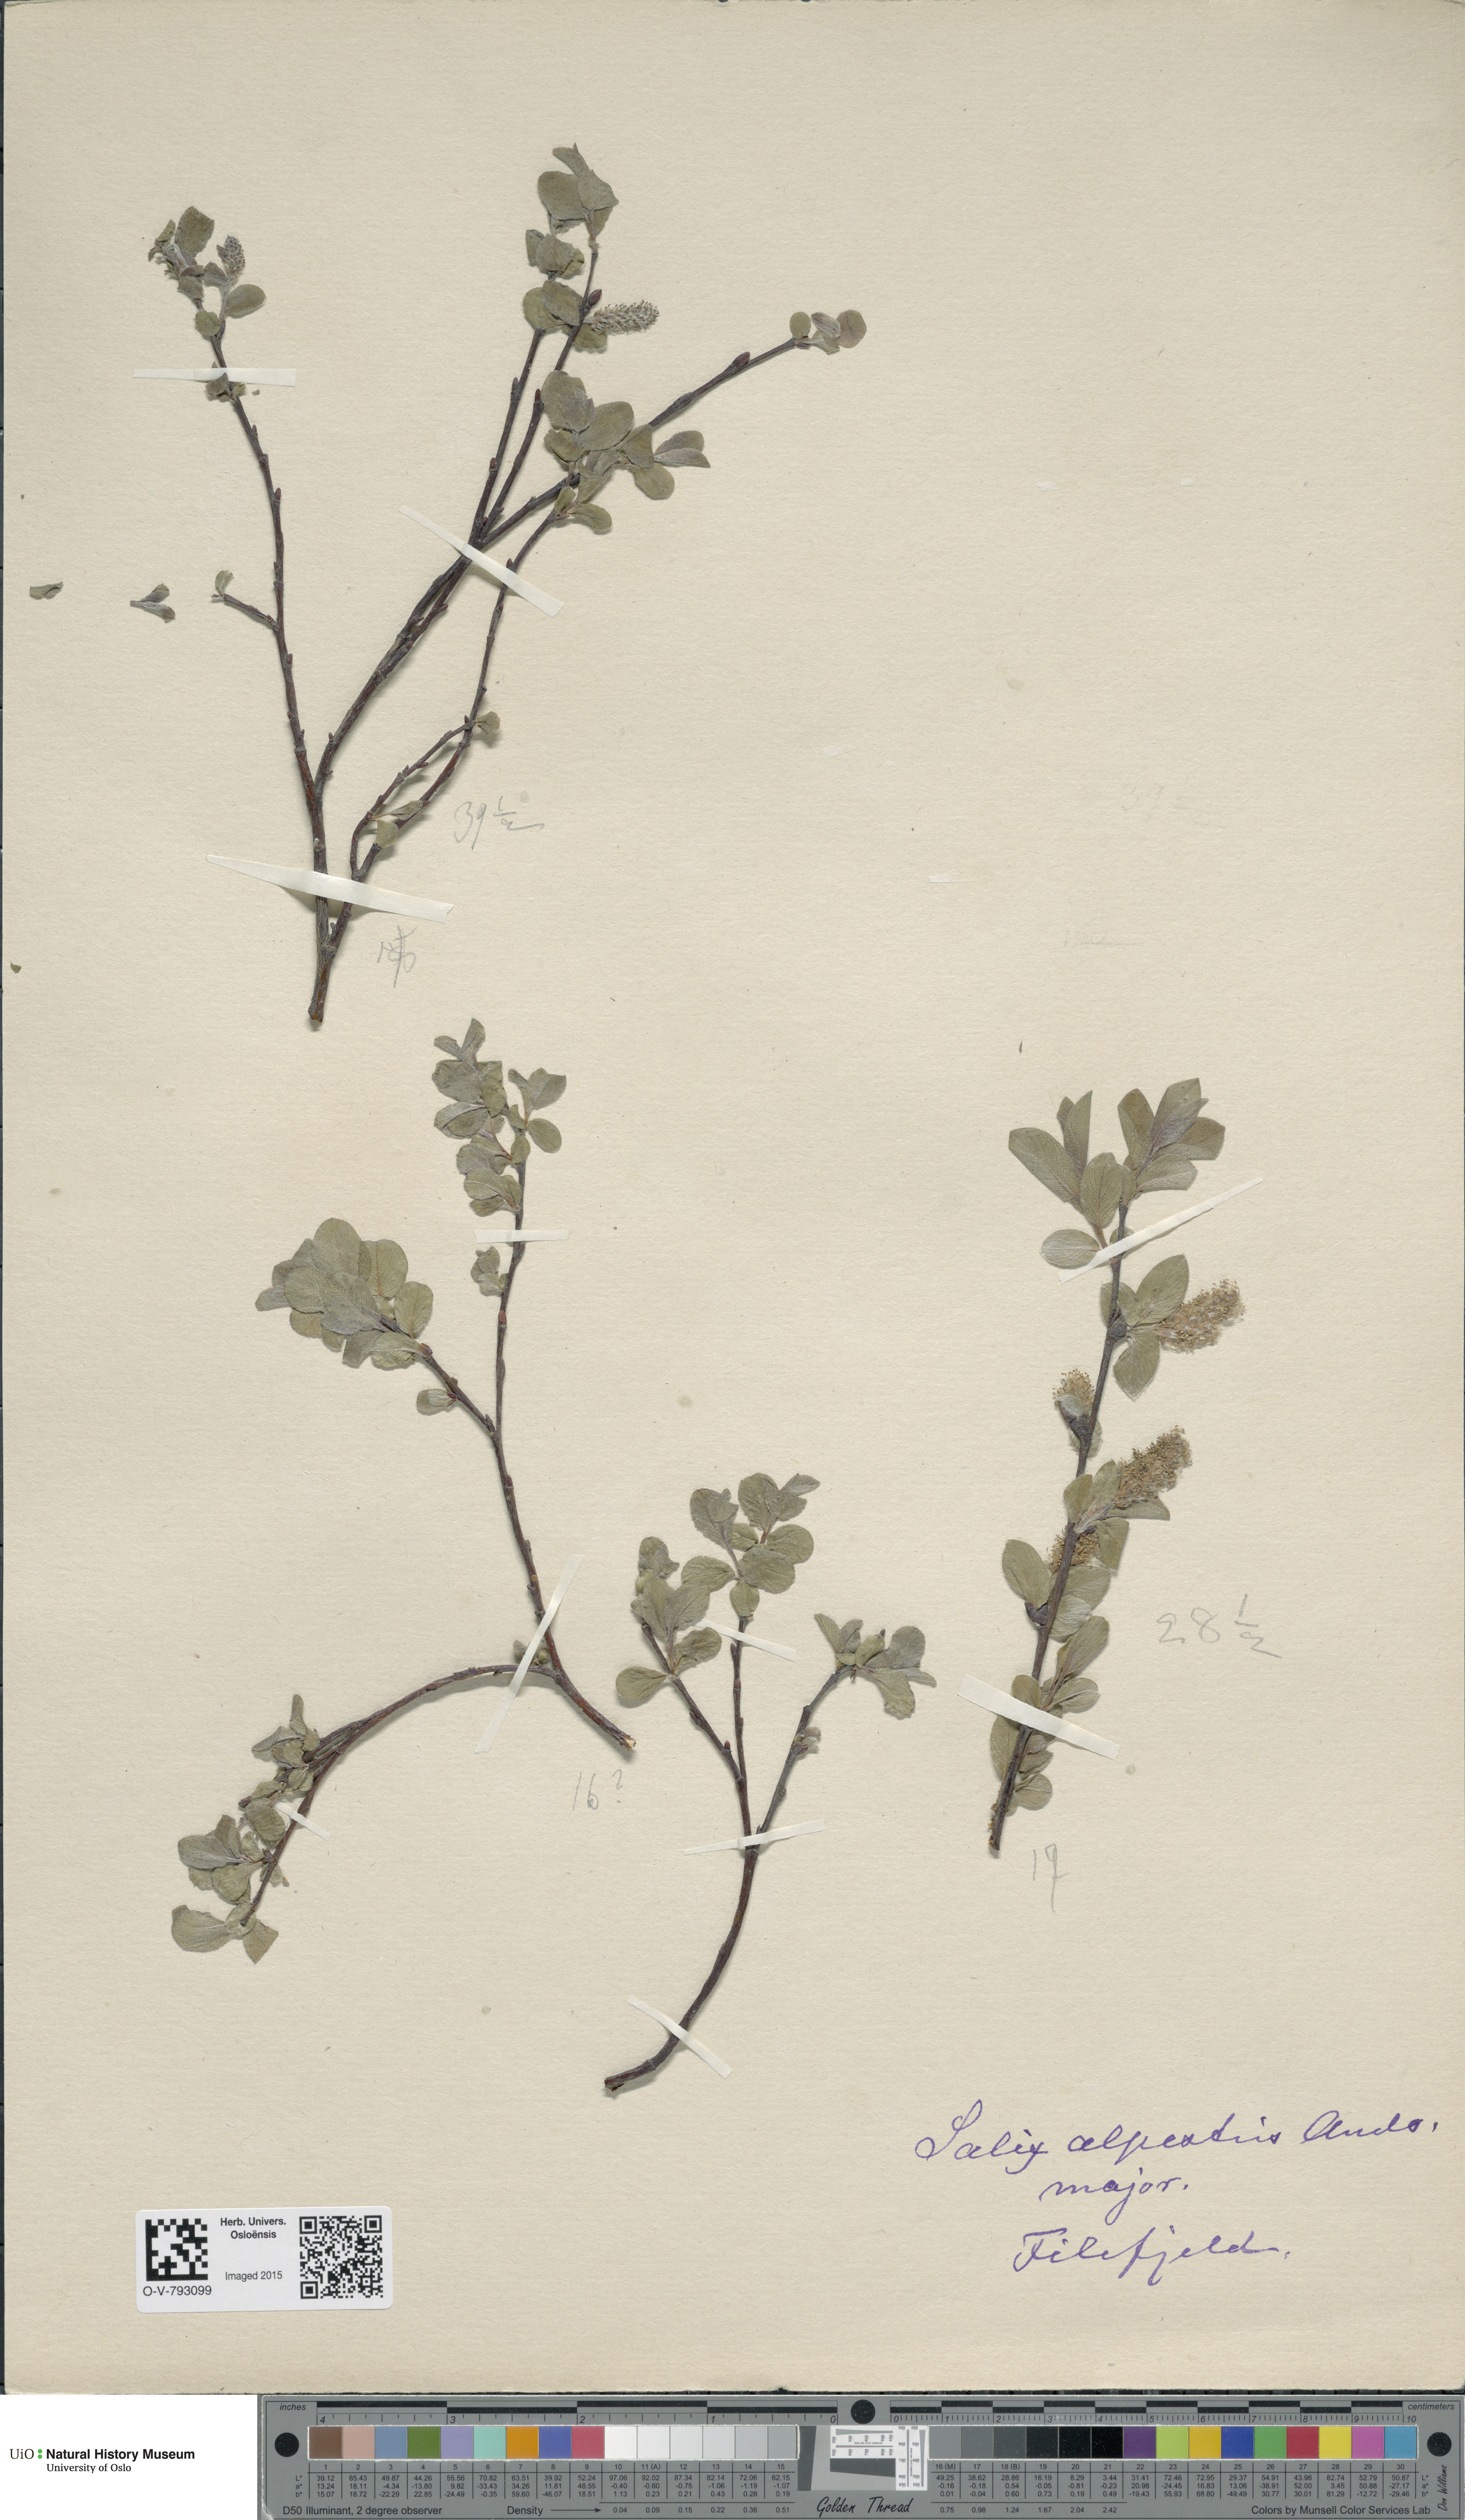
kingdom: Plantae
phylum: Tracheophyta
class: Magnoliopsida
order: Malpighiales
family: Salicaceae
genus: Salix
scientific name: Salix
